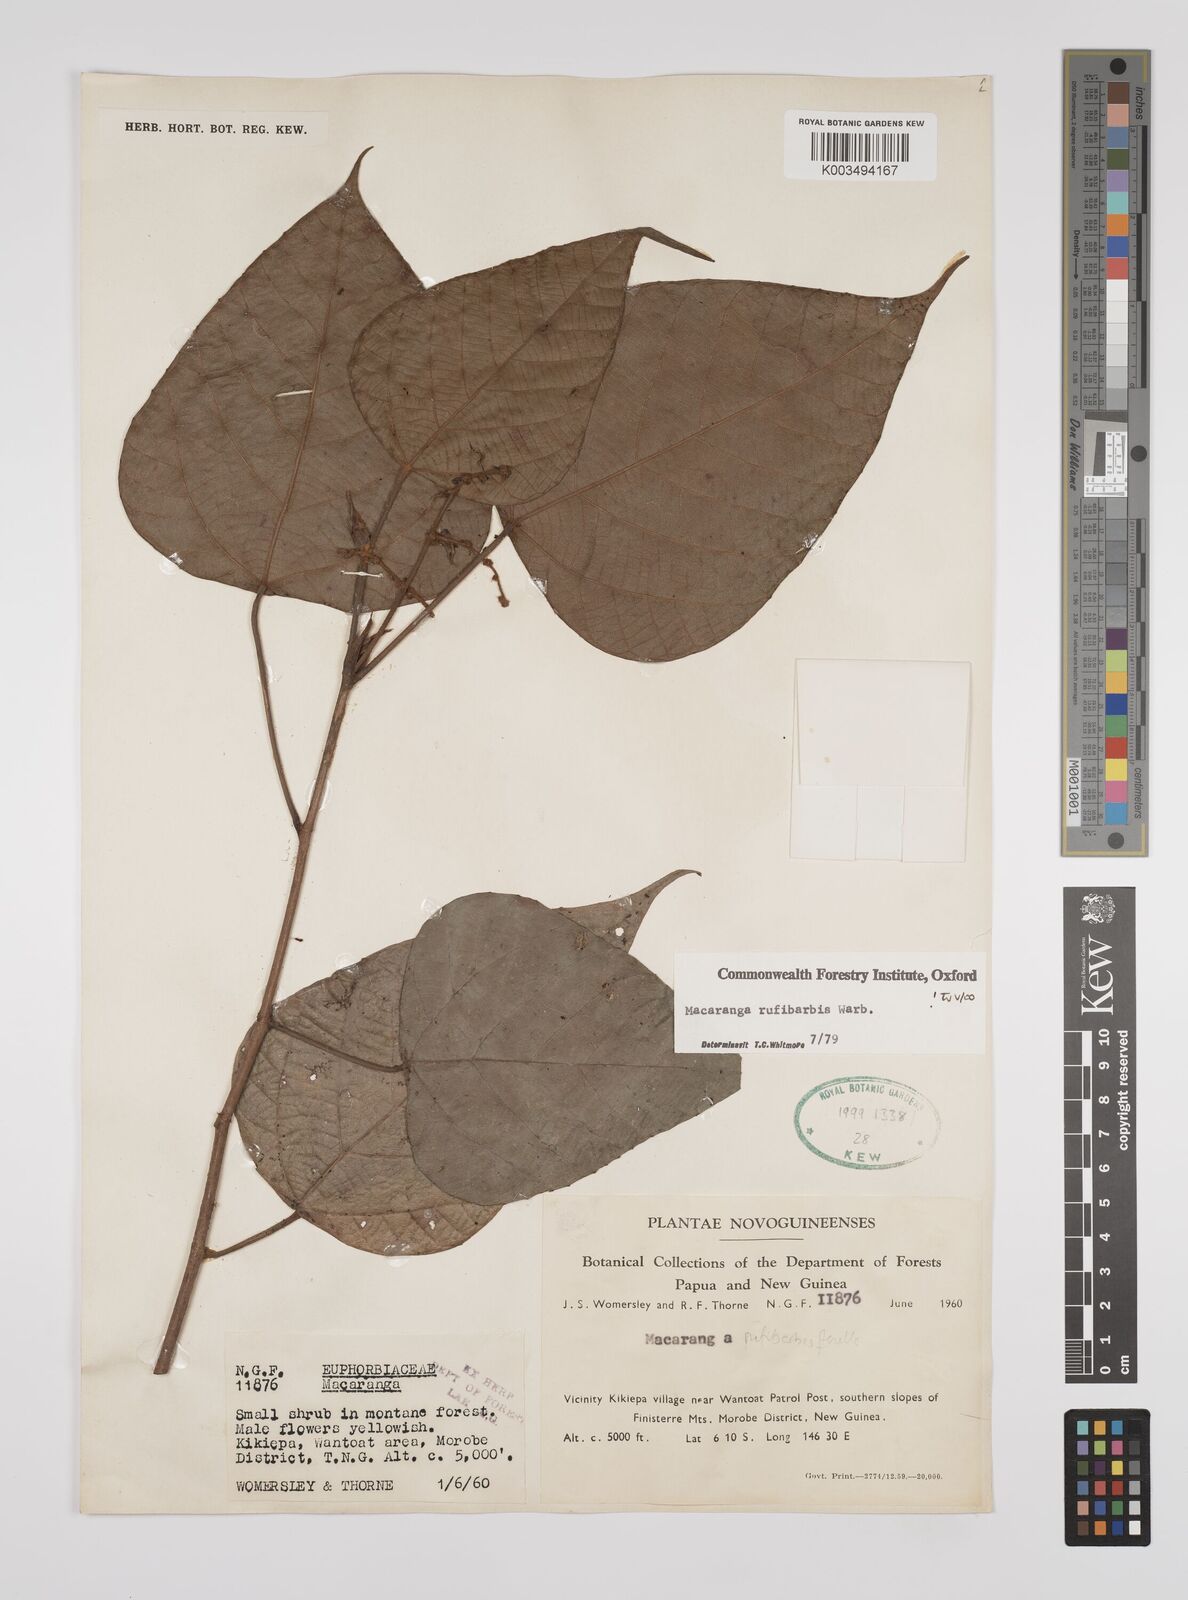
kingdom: Plantae
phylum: Tracheophyta
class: Magnoliopsida
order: Malpighiales
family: Euphorbiaceae
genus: Macaranga
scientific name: Macaranga rufibarbis
